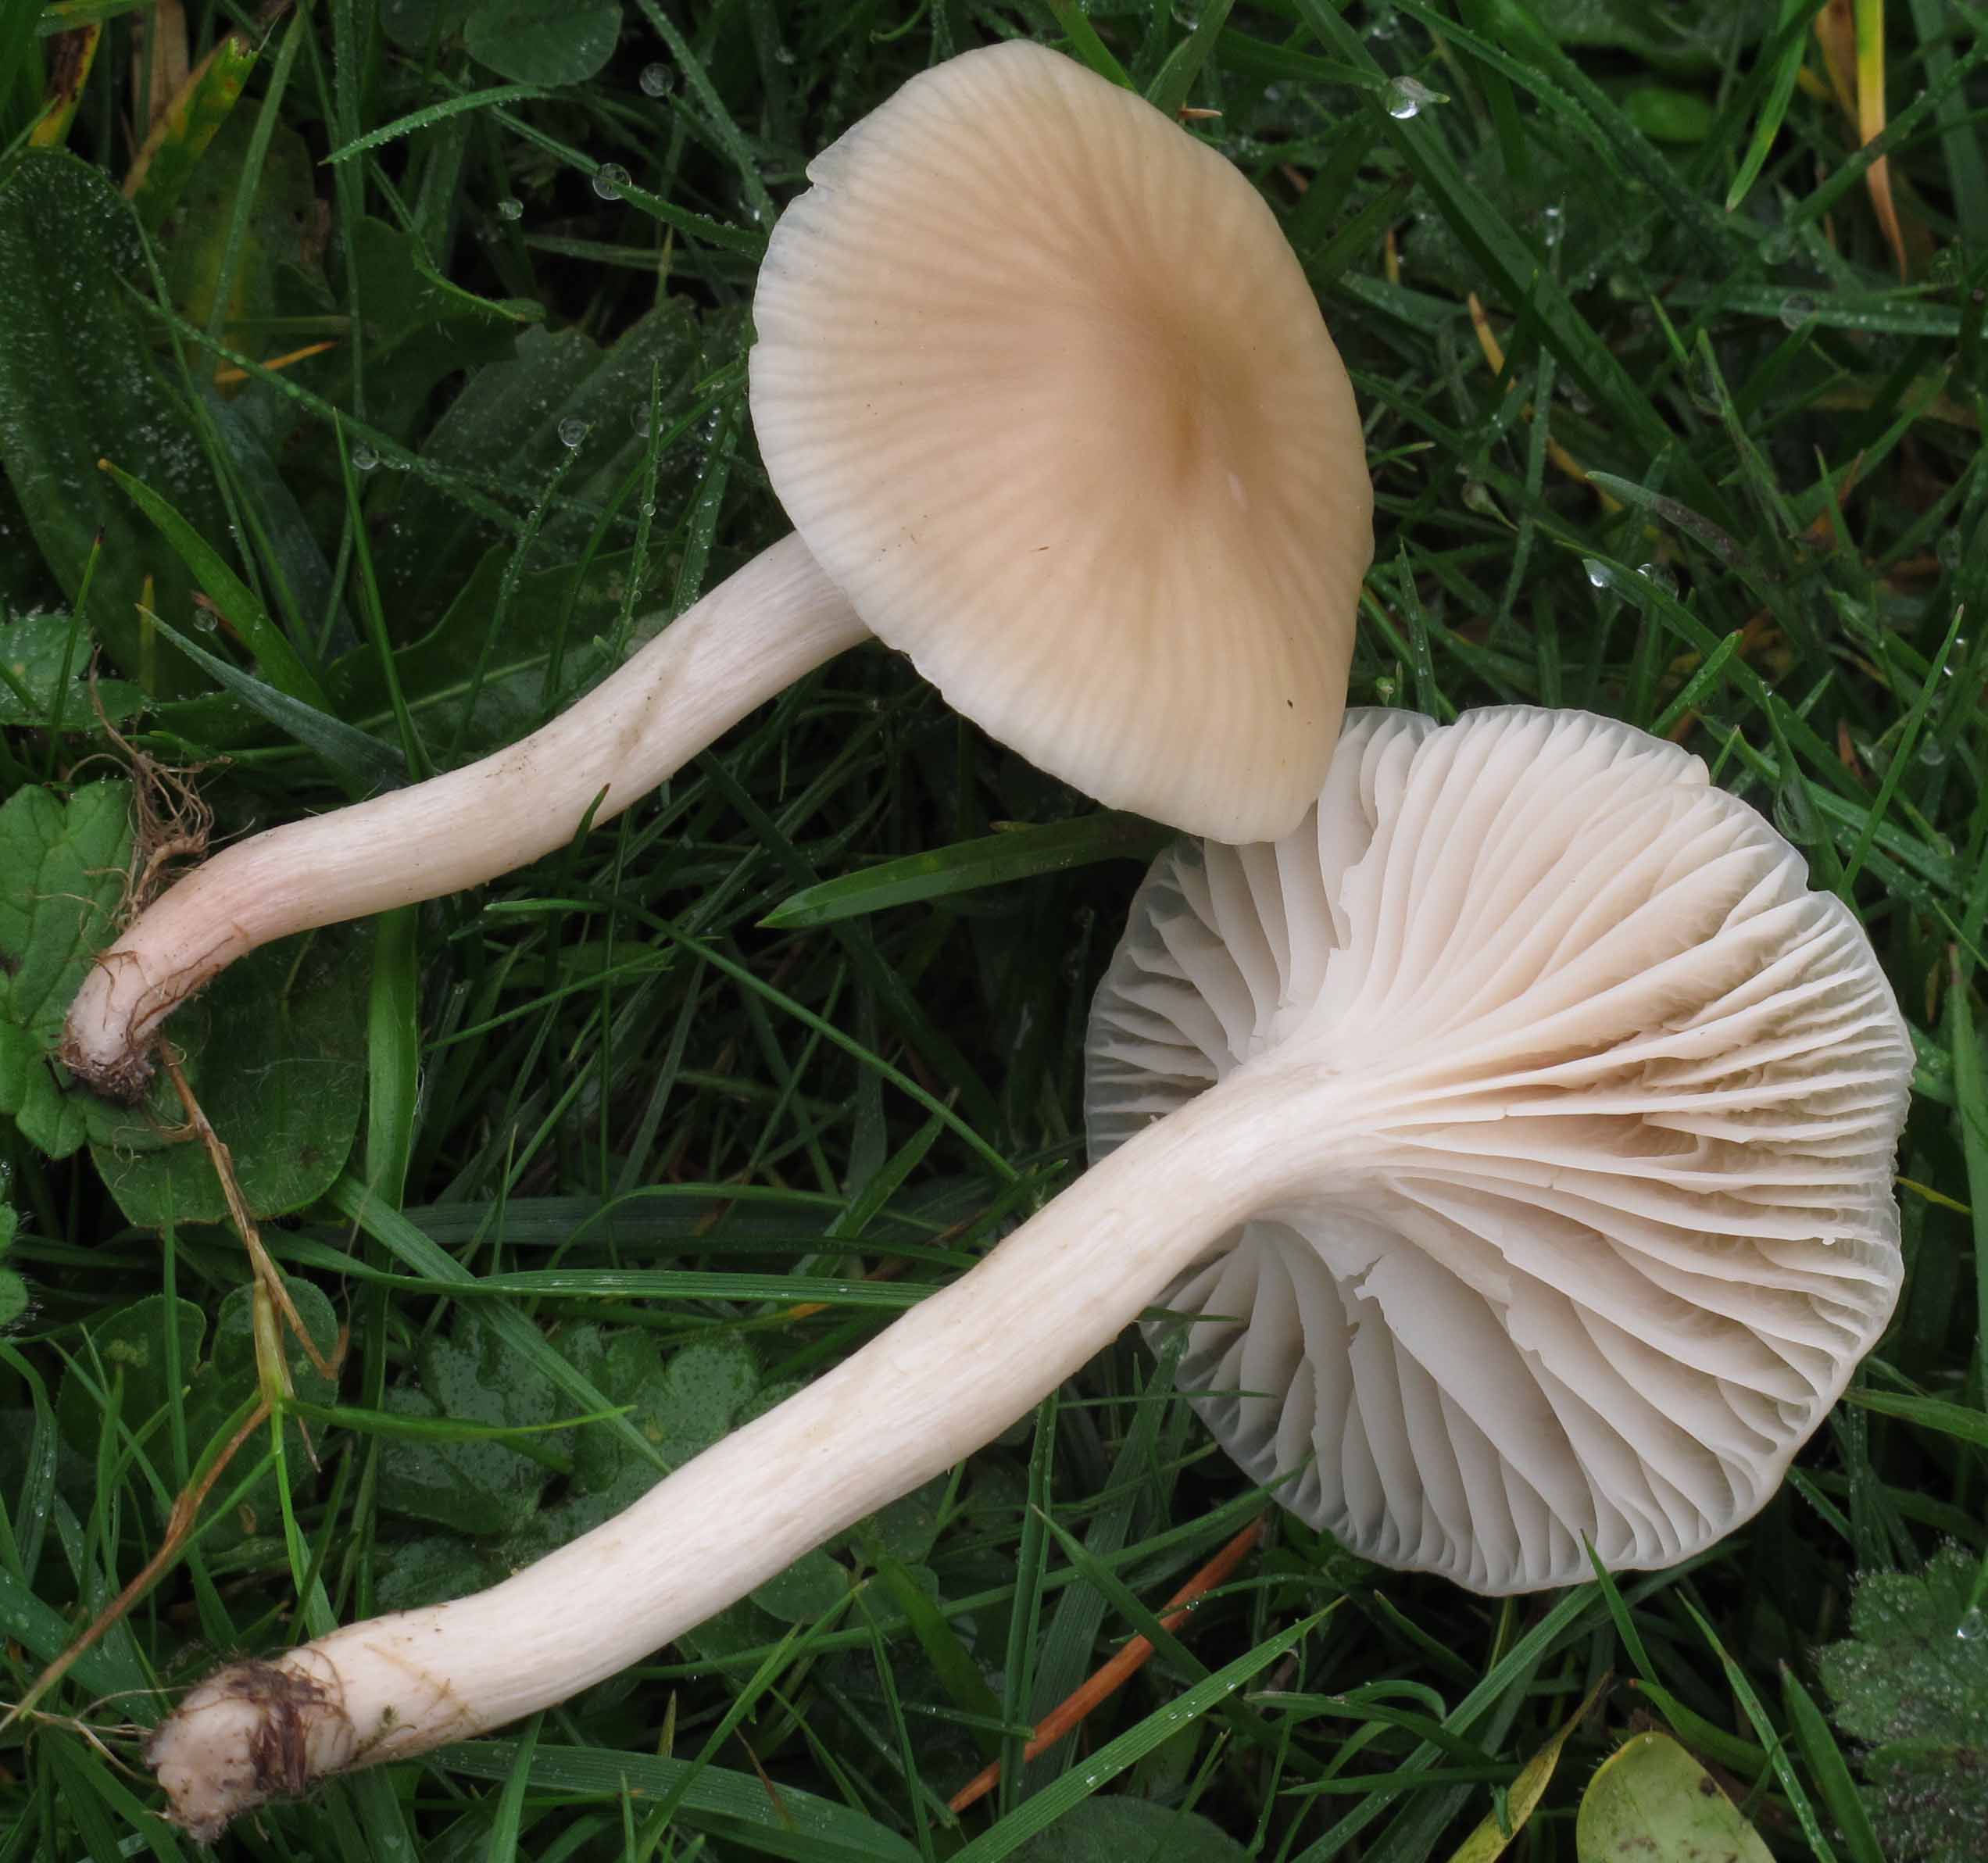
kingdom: Fungi
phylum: Basidiomycota
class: Agaricomycetes
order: Agaricales
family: Hygrophoraceae
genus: Cuphophyllus
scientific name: Cuphophyllus virgineus
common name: isabella-vokshat
